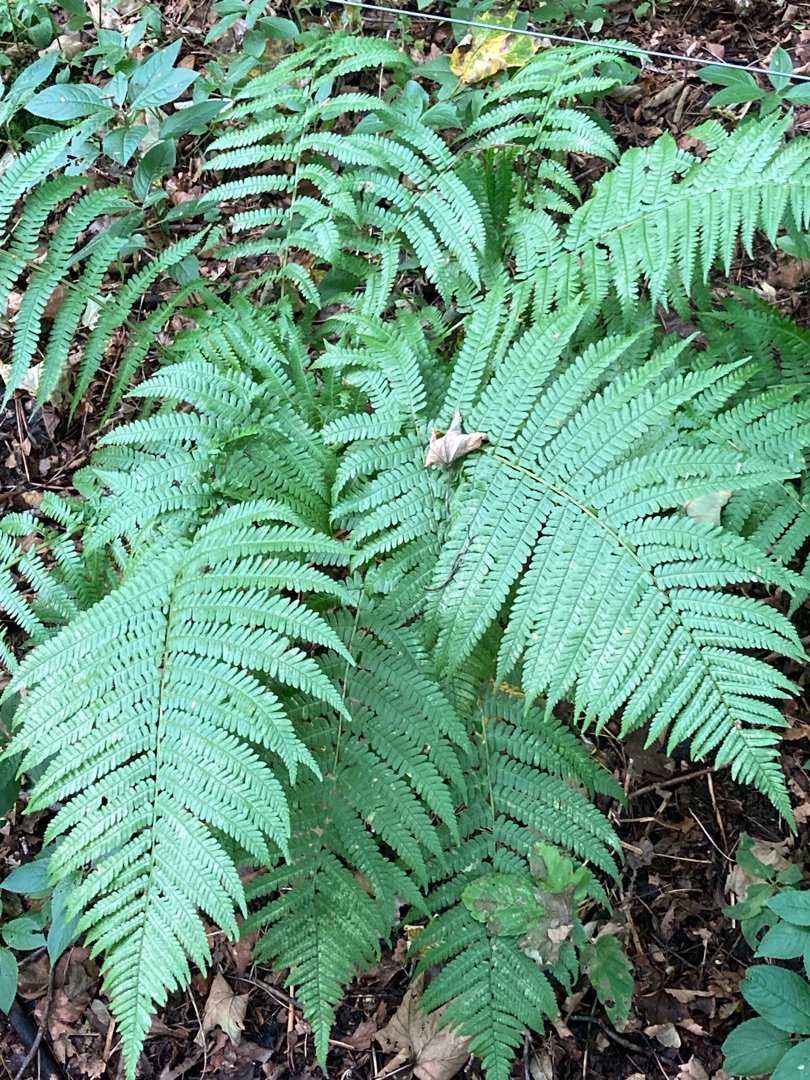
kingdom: Plantae
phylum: Tracheophyta
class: Polypodiopsida
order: Polypodiales
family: Dryopteridaceae
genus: Dryopteris
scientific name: Dryopteris filix-mas
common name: Almindelig mangeløv
